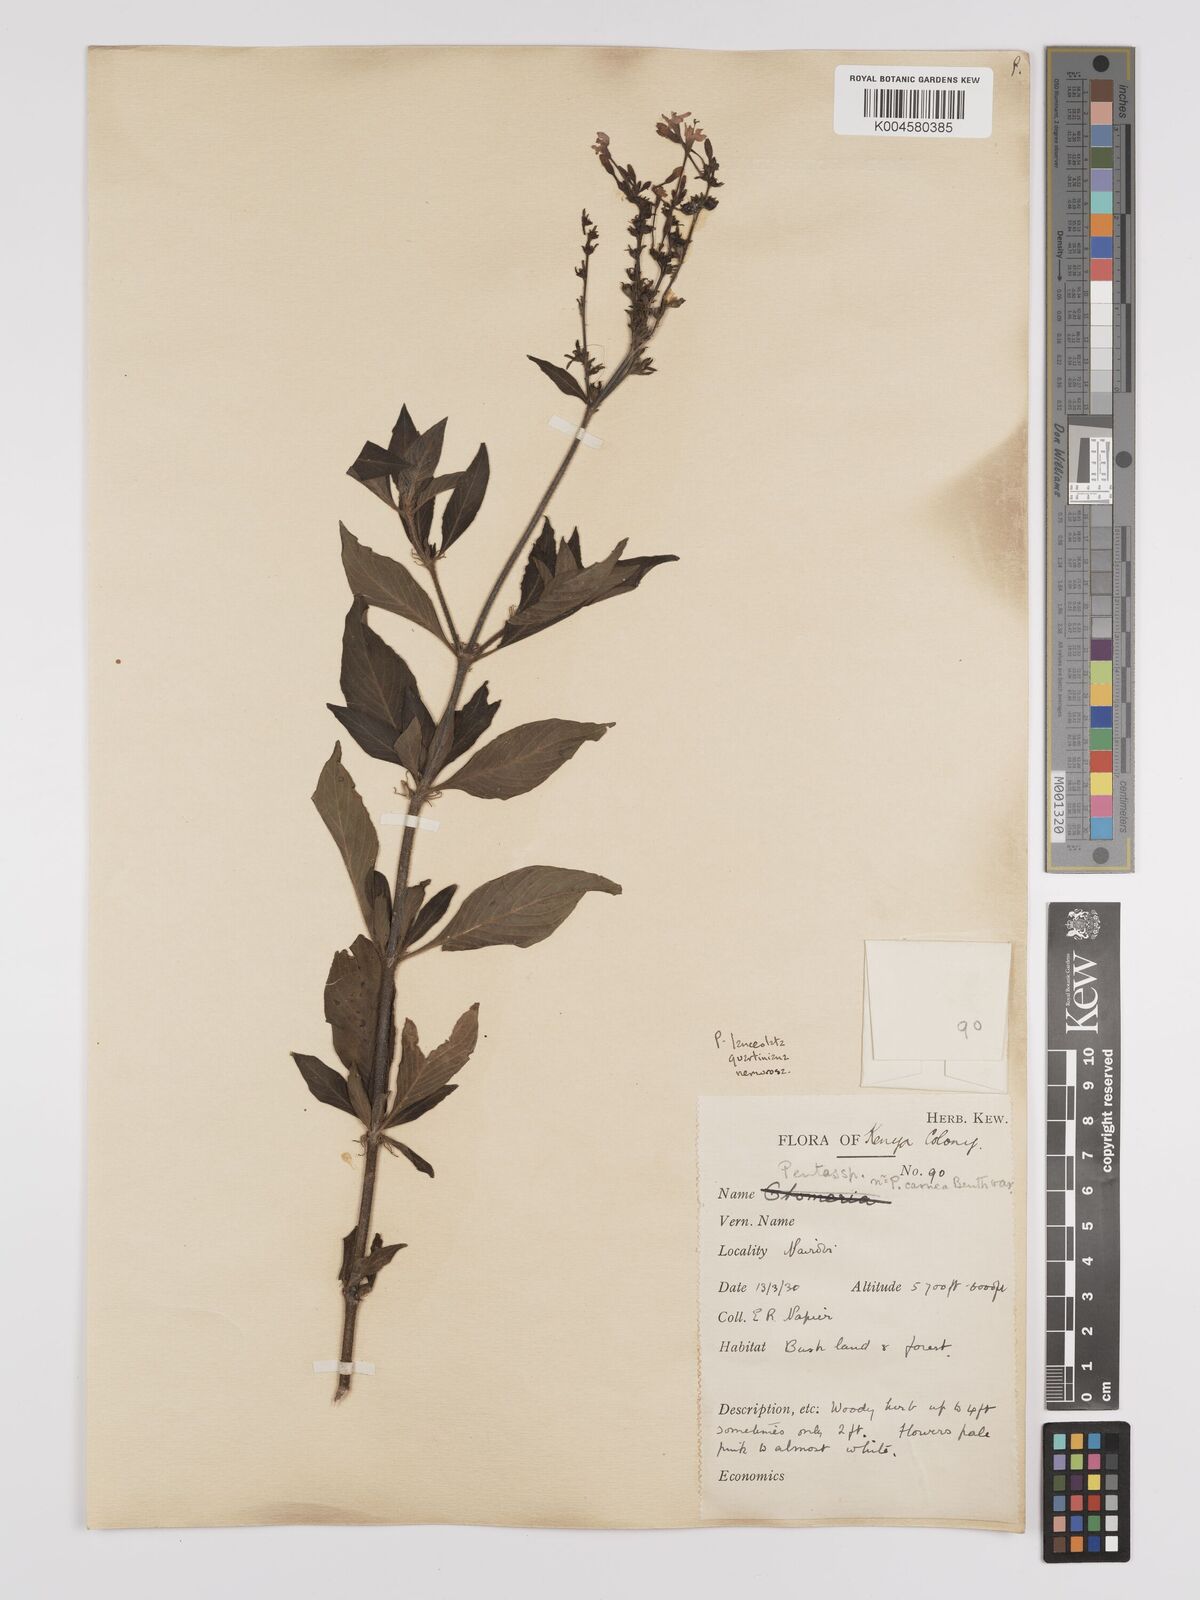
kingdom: Plantae
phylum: Tracheophyta
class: Magnoliopsida
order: Gentianales
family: Rubiaceae
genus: Pentas
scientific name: Pentas lanceolata
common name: Egyptian starcluster
